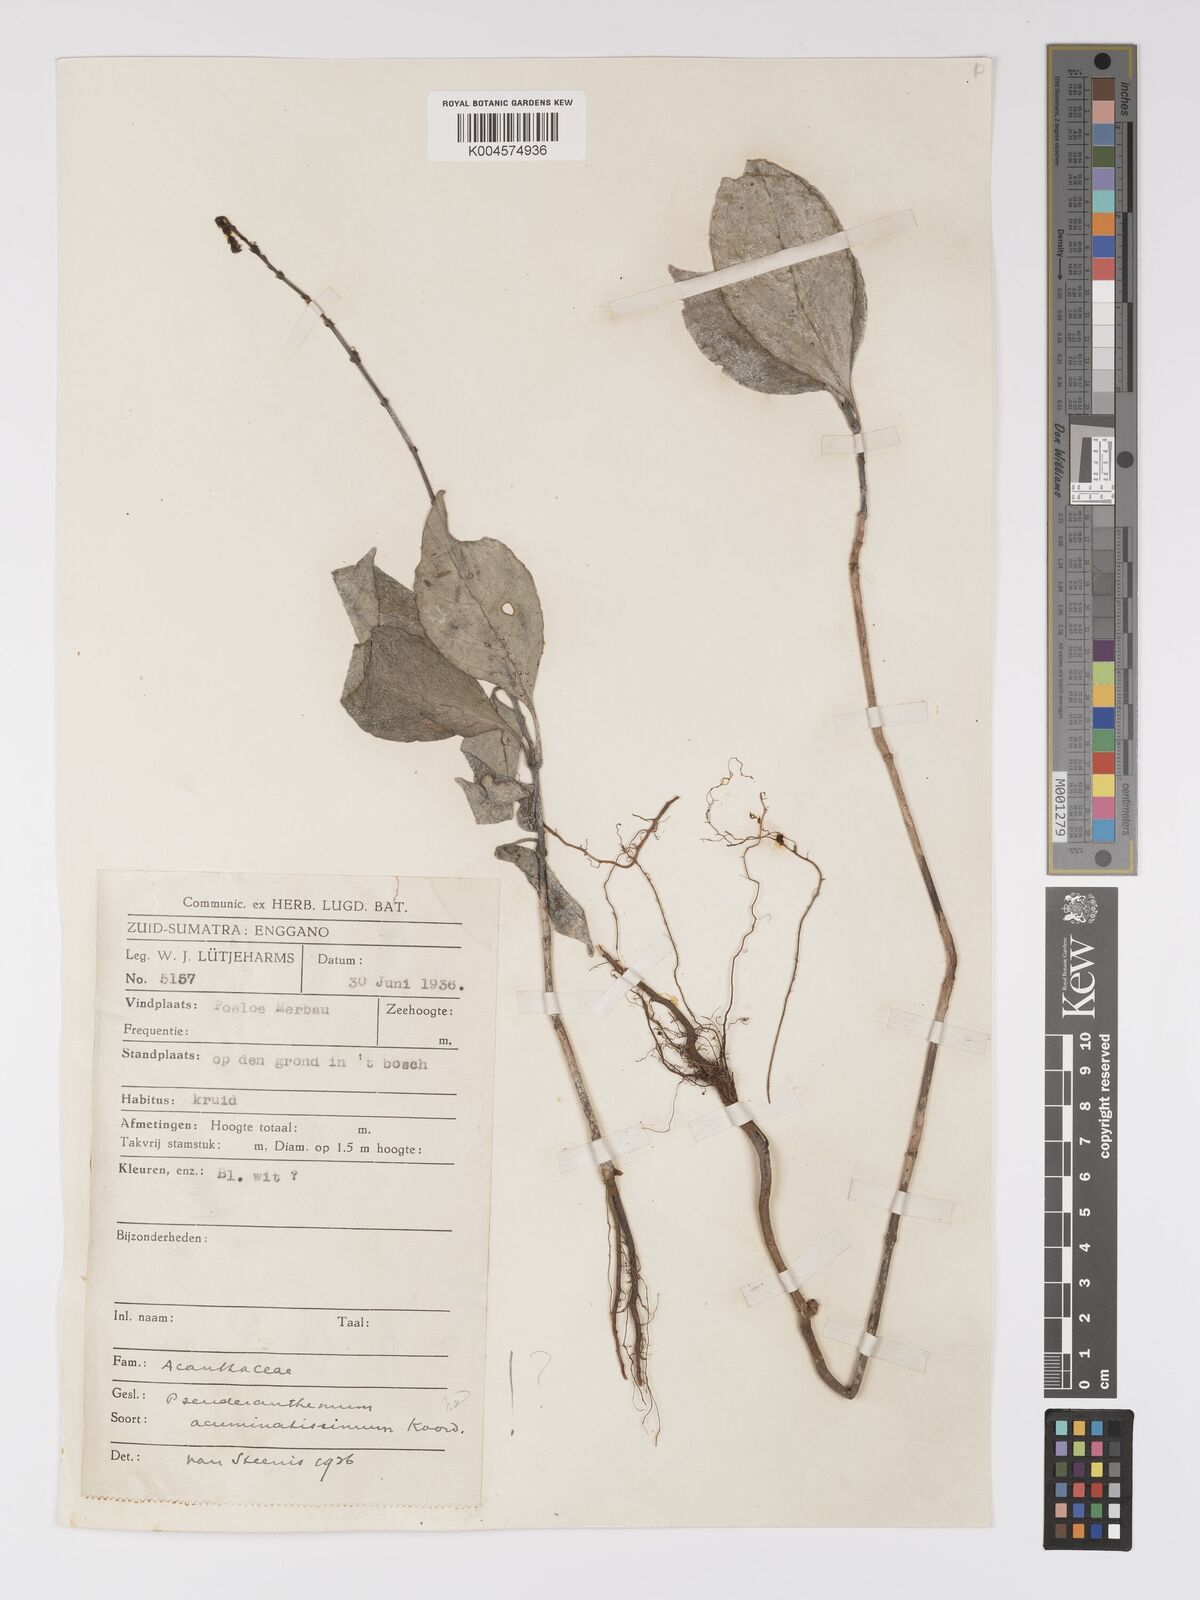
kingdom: Plantae
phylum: Tracheophyta
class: Magnoliopsida
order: Lamiales
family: Acanthaceae
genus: Pseuderanthemum
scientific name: Pseuderanthemum acuminatissimum
